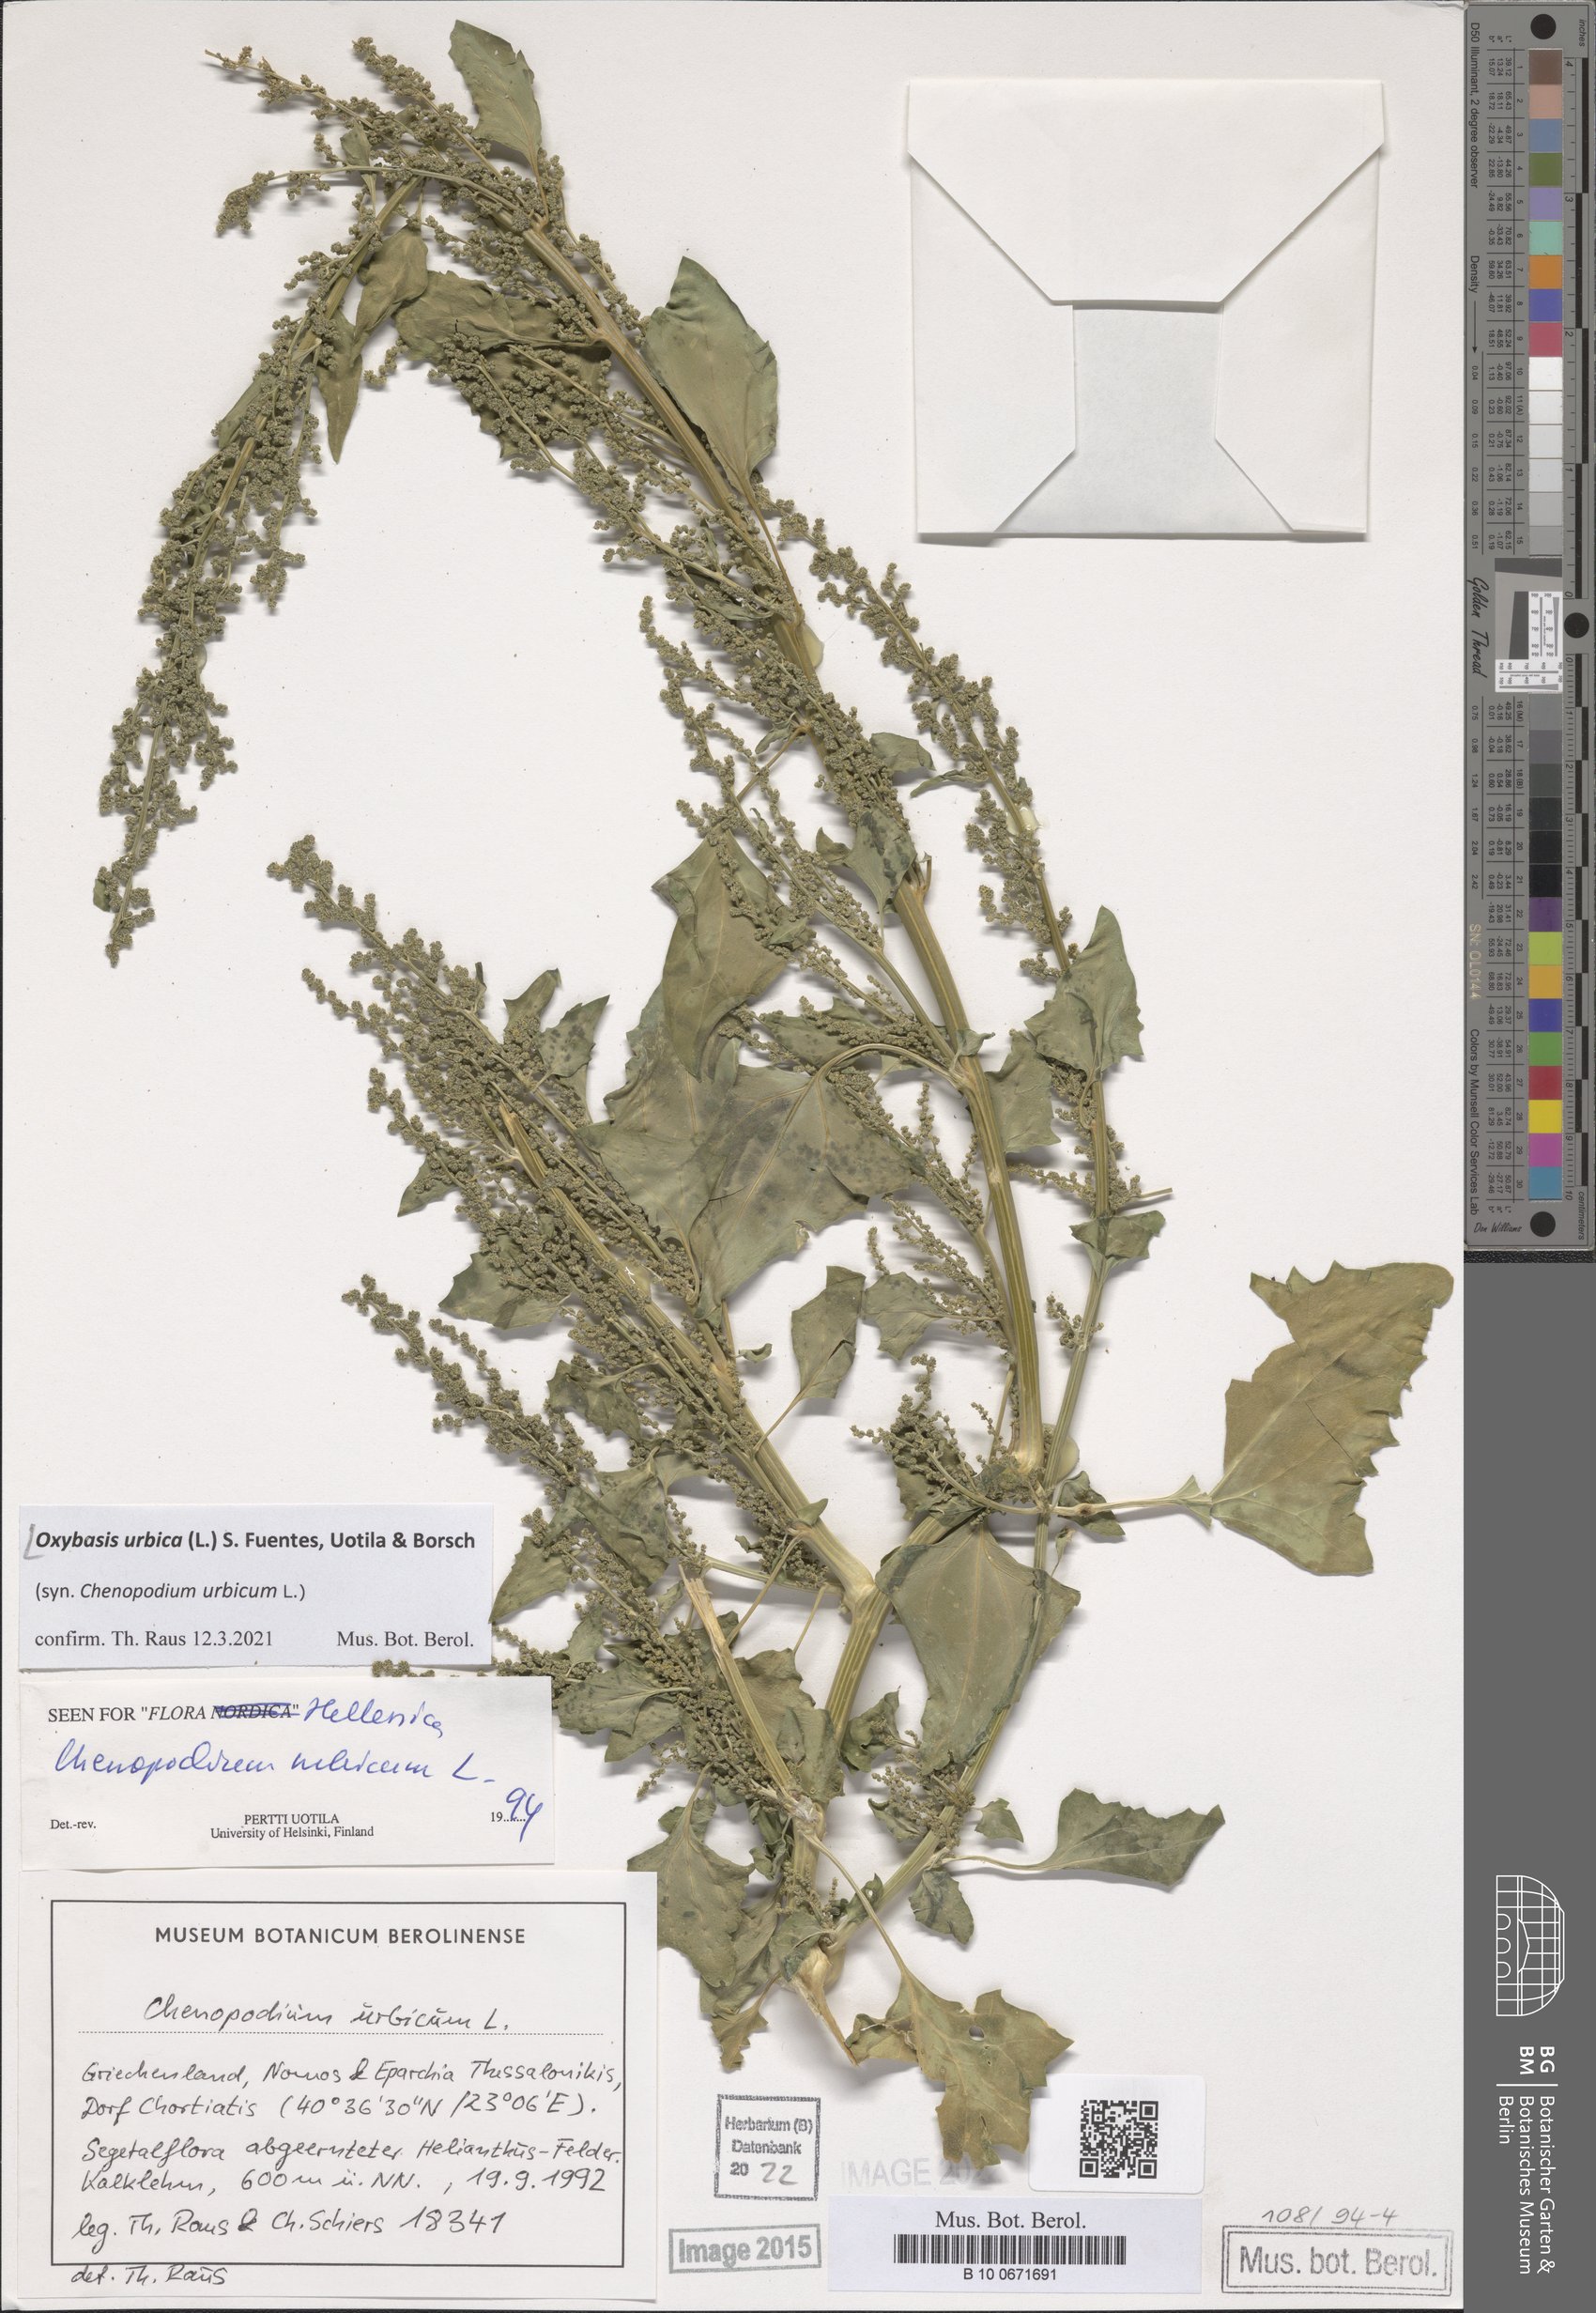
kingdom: Plantae
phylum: Tracheophyta
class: Magnoliopsida
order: Caryophyllales
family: Amaranthaceae
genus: Oxybasis
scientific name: Oxybasis urbica
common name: City goosefoot
